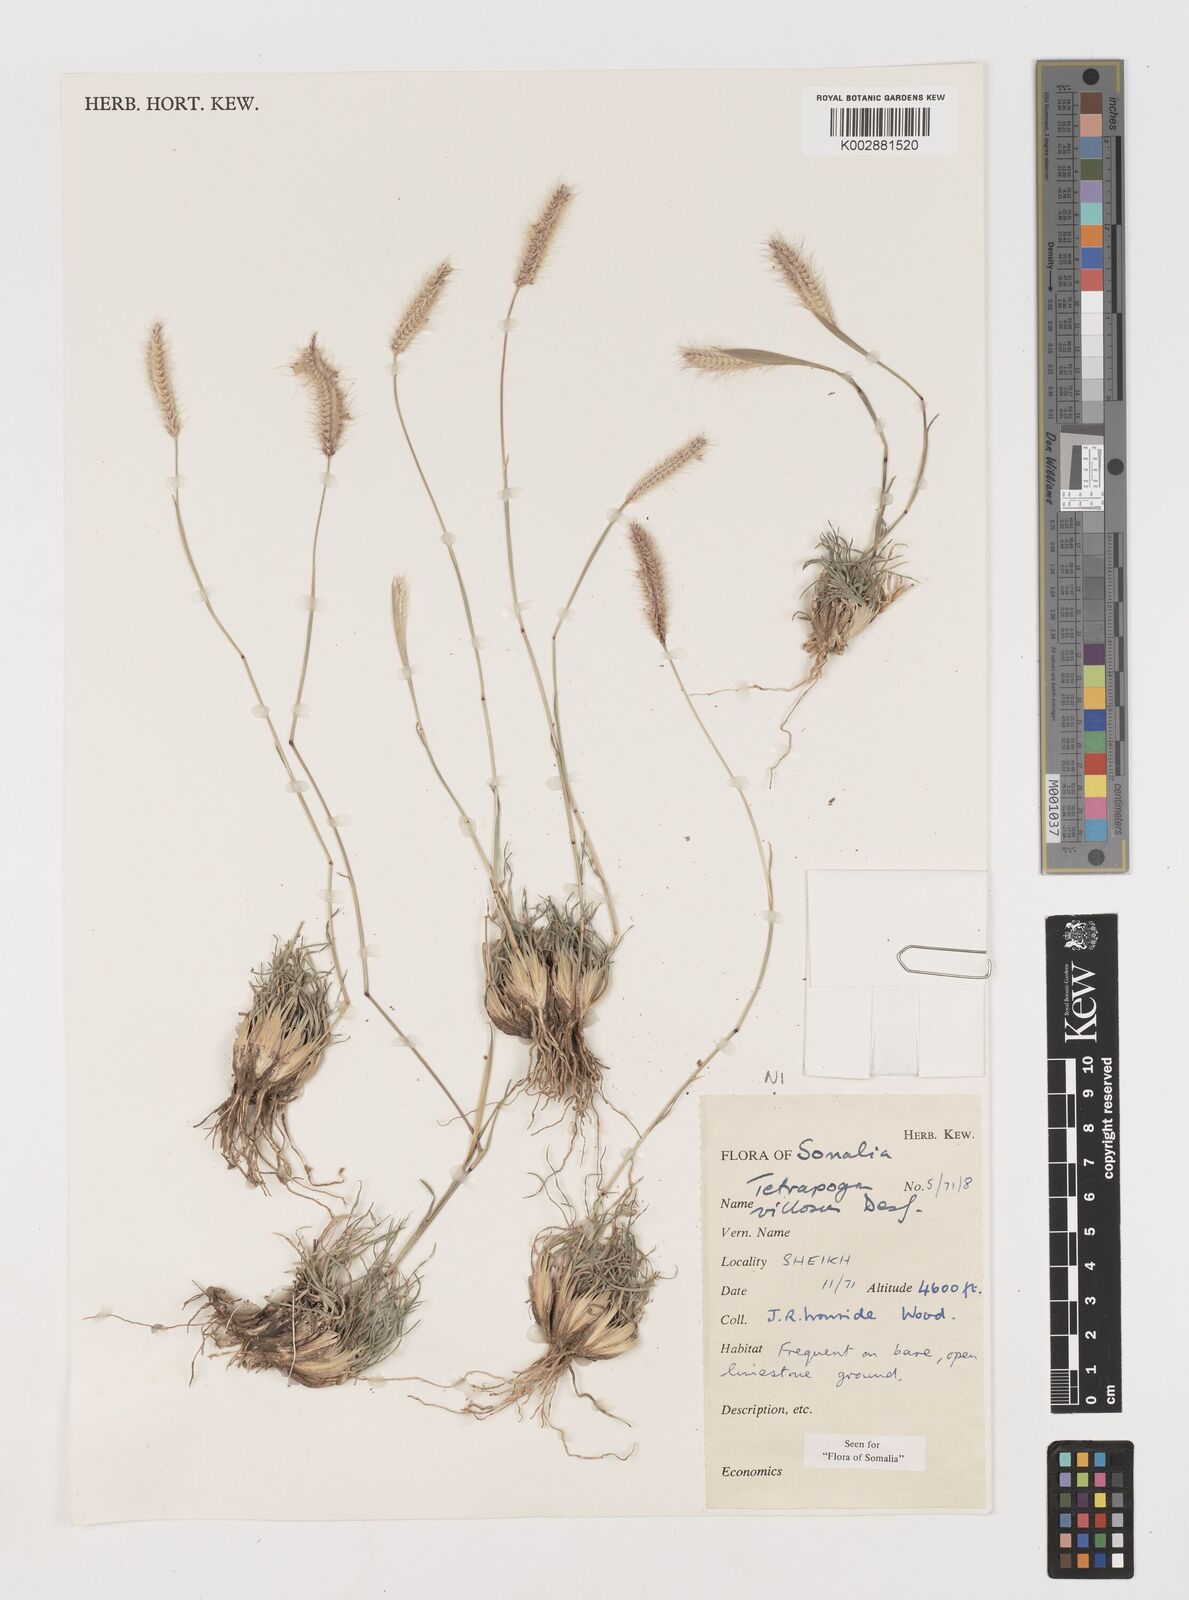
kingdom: Plantae
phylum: Tracheophyta
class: Liliopsida
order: Poales
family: Poaceae
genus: Tetrapogon
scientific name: Tetrapogon villosus
